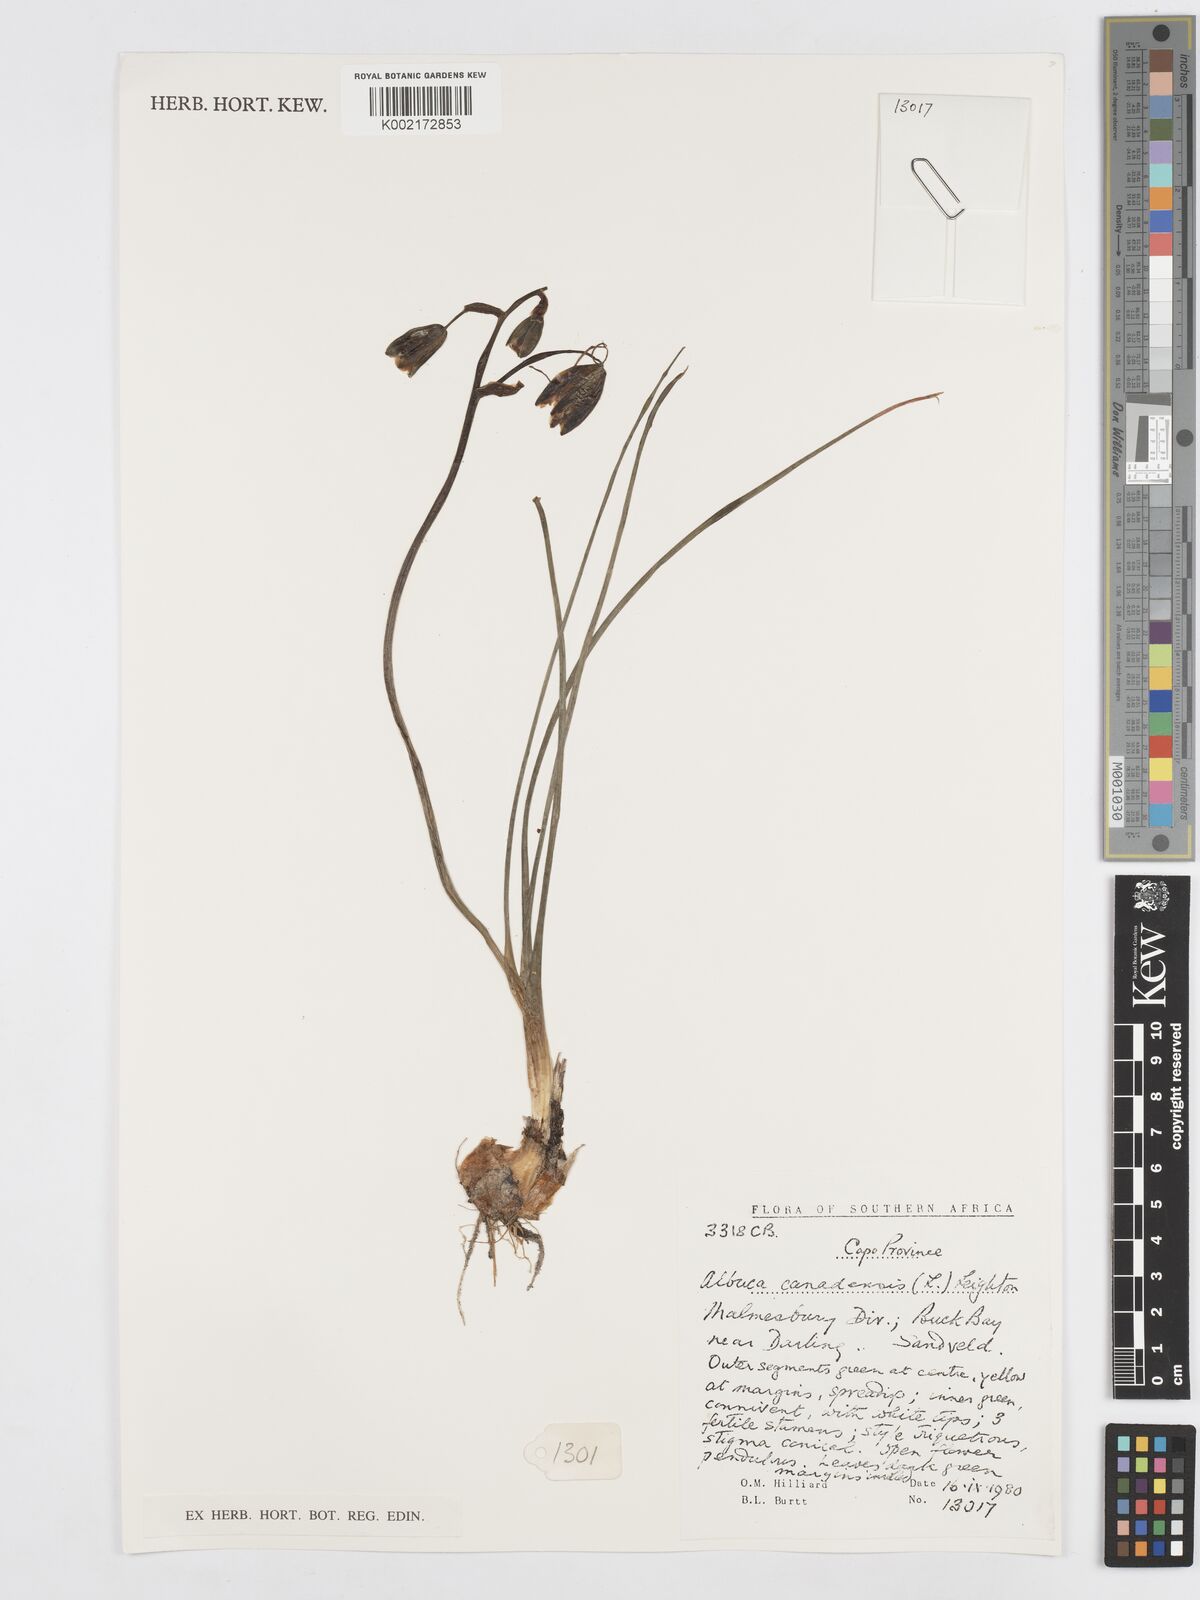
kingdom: Plantae
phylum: Tracheophyta
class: Liliopsida
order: Asparagales
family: Asparagaceae
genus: Albuca
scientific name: Albuca canadensis
